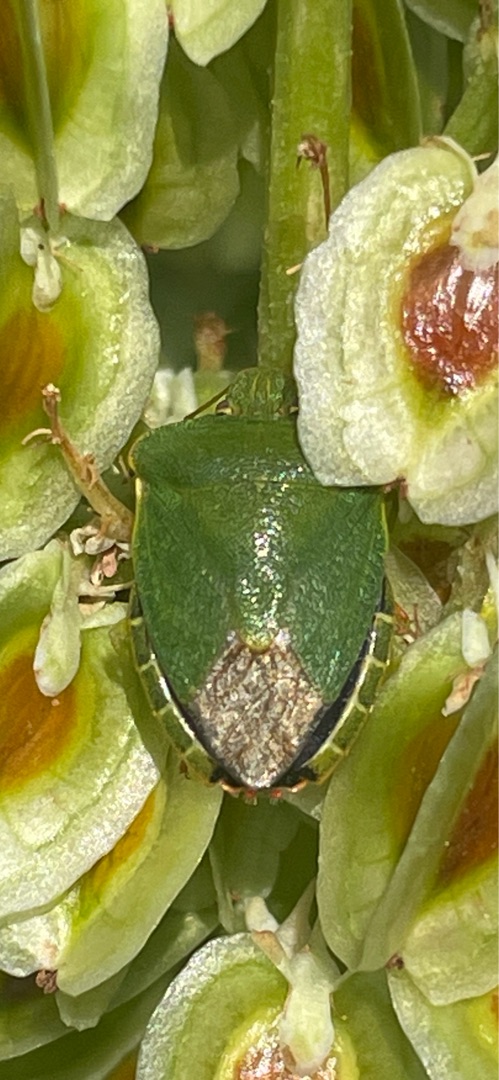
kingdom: Animalia
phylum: Arthropoda
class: Insecta
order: Hemiptera
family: Pentatomidae
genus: Palomena
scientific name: Palomena prasina
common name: Grøn bredtæge
